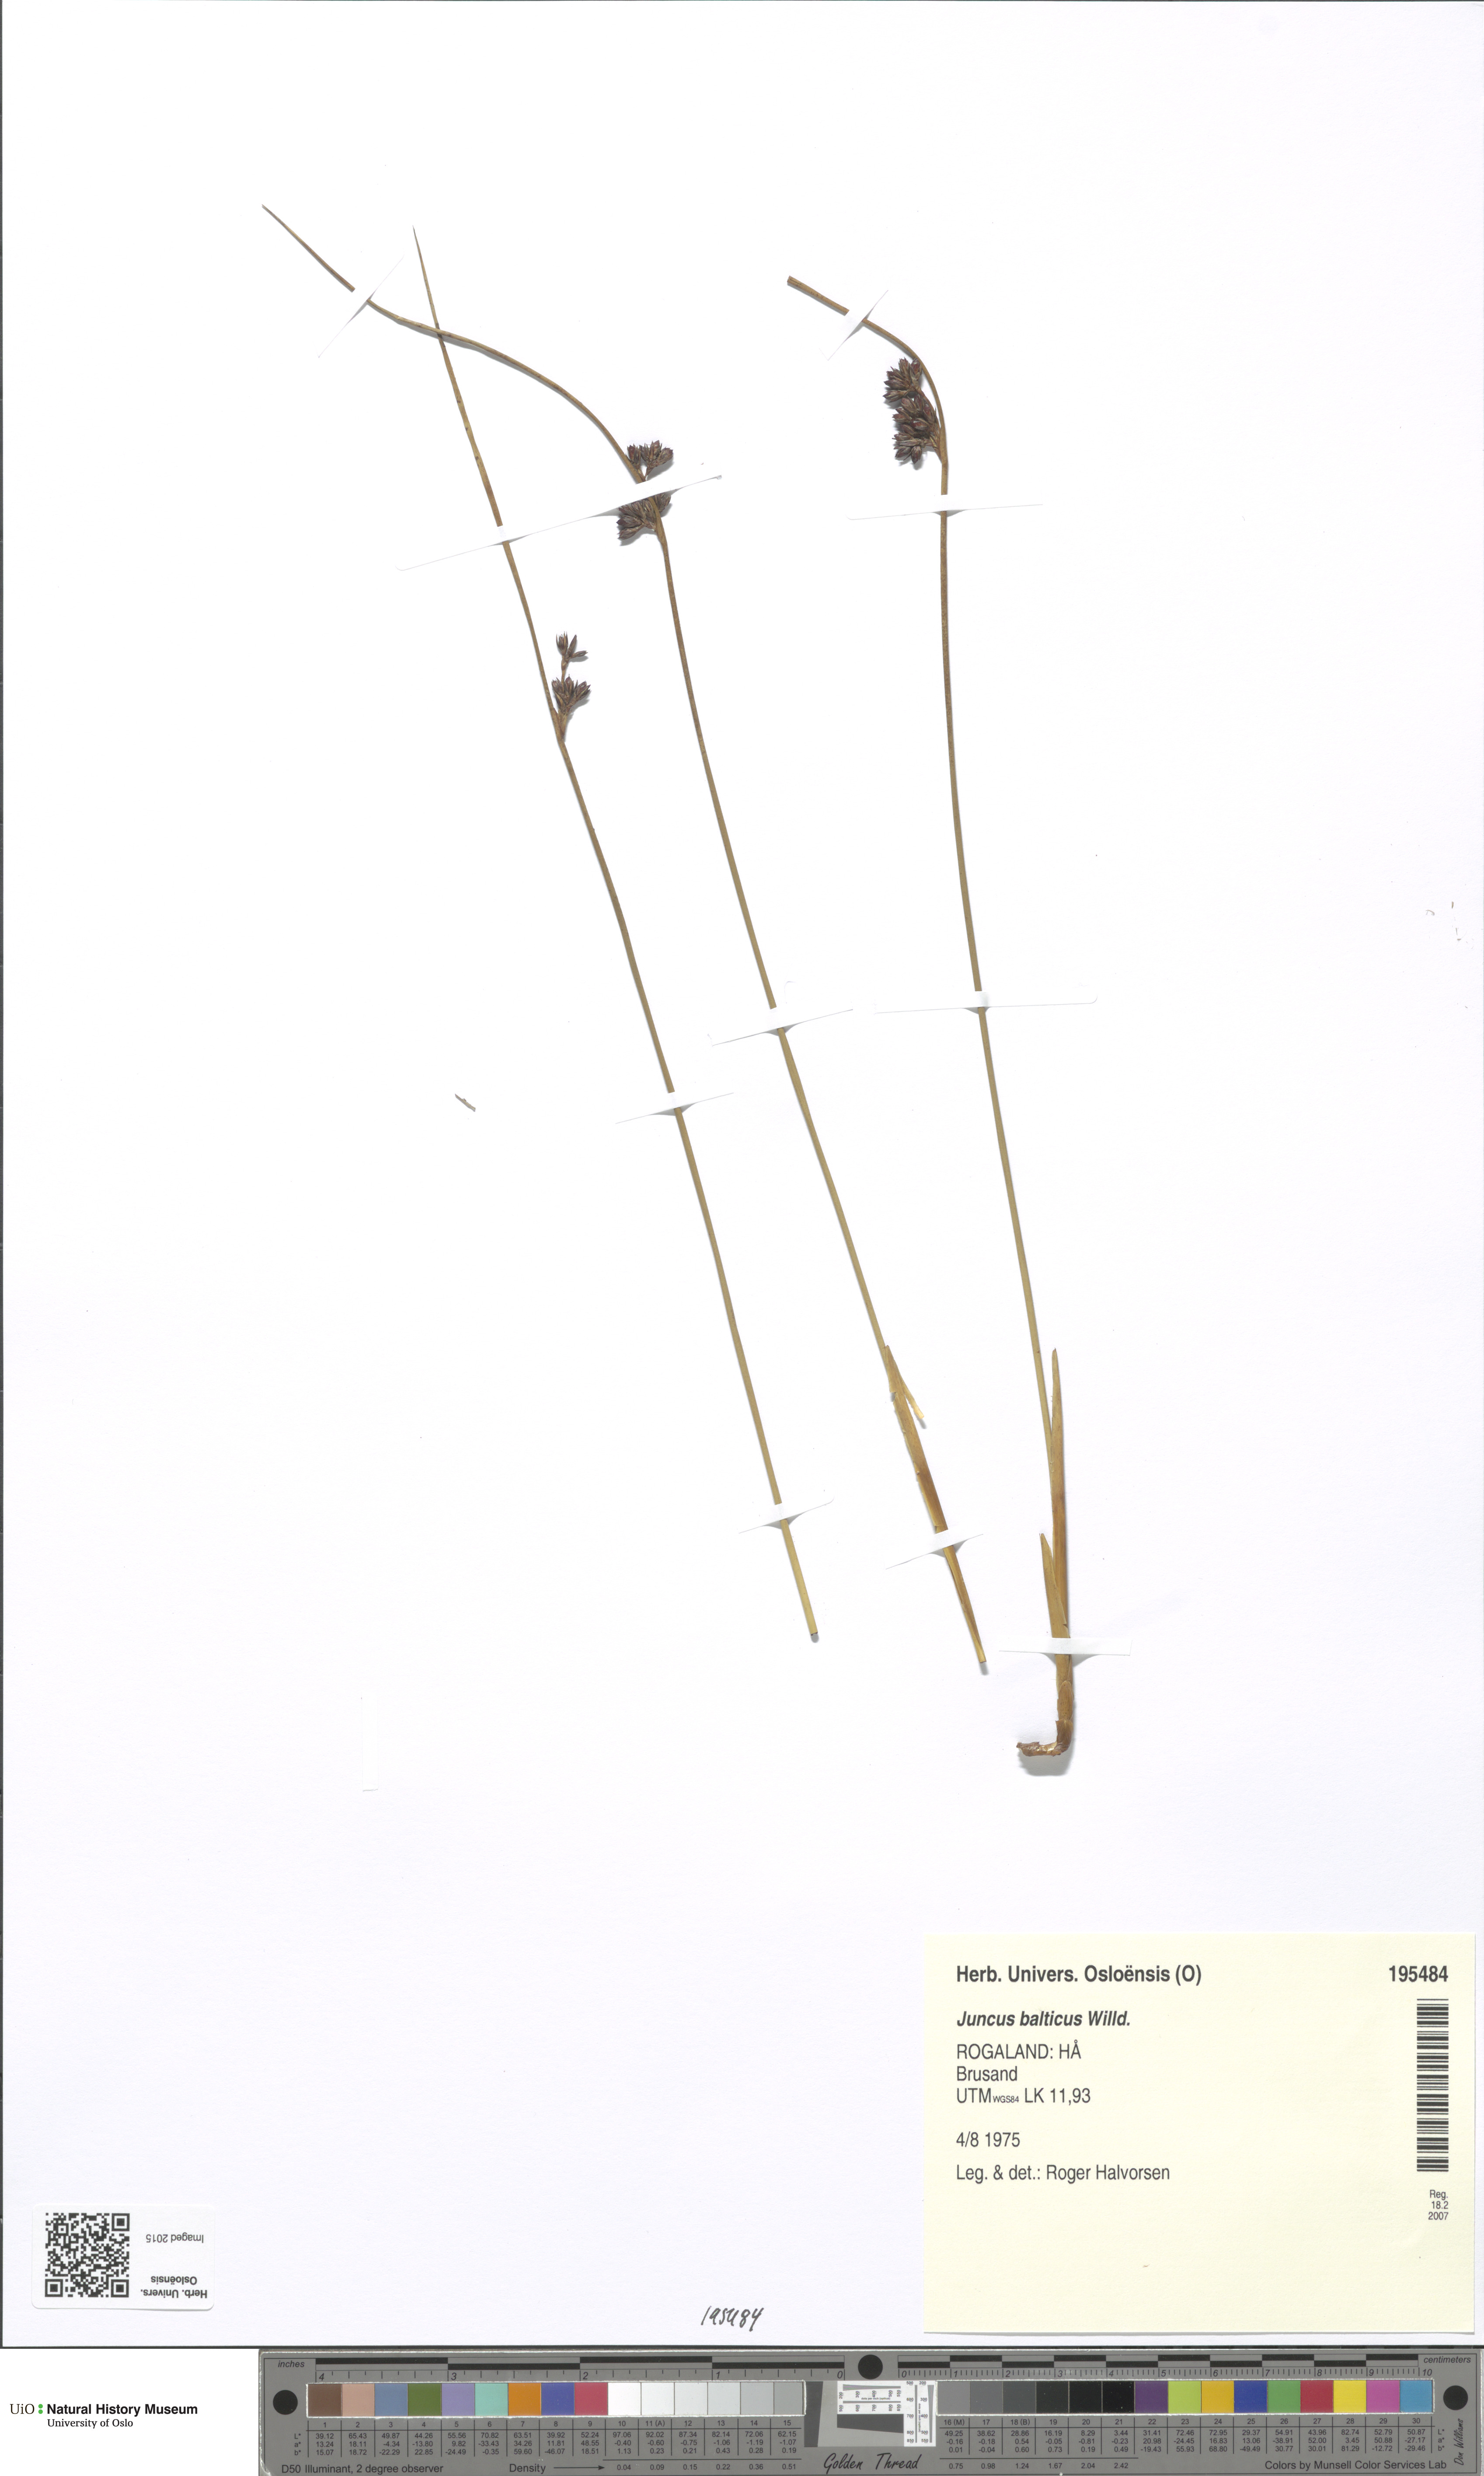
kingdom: Plantae
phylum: Tracheophyta
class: Liliopsida
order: Poales
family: Juncaceae
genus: Juncus
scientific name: Juncus balticus
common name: Baltic rush
